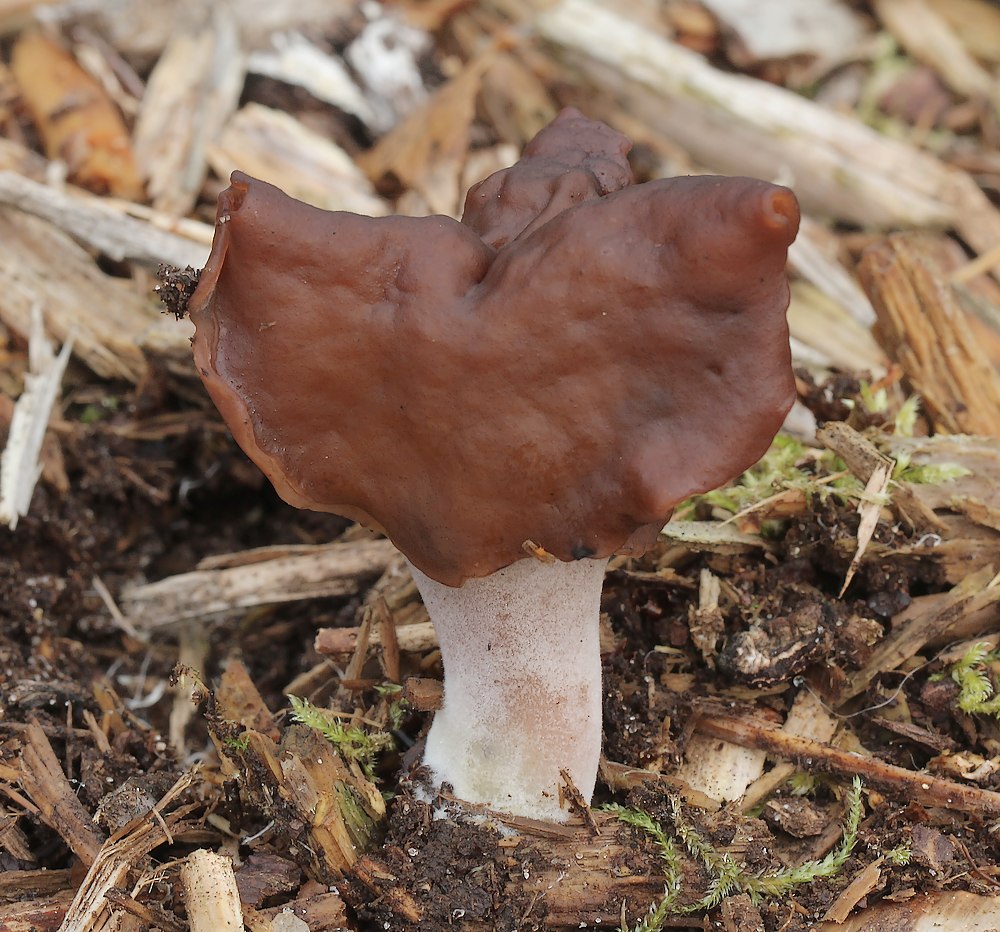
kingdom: Fungi
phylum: Ascomycota
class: Pezizomycetes
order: Pezizales
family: Discinaceae
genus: Gyromitra
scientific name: Gyromitra infula
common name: bispehue-stenmorkel
